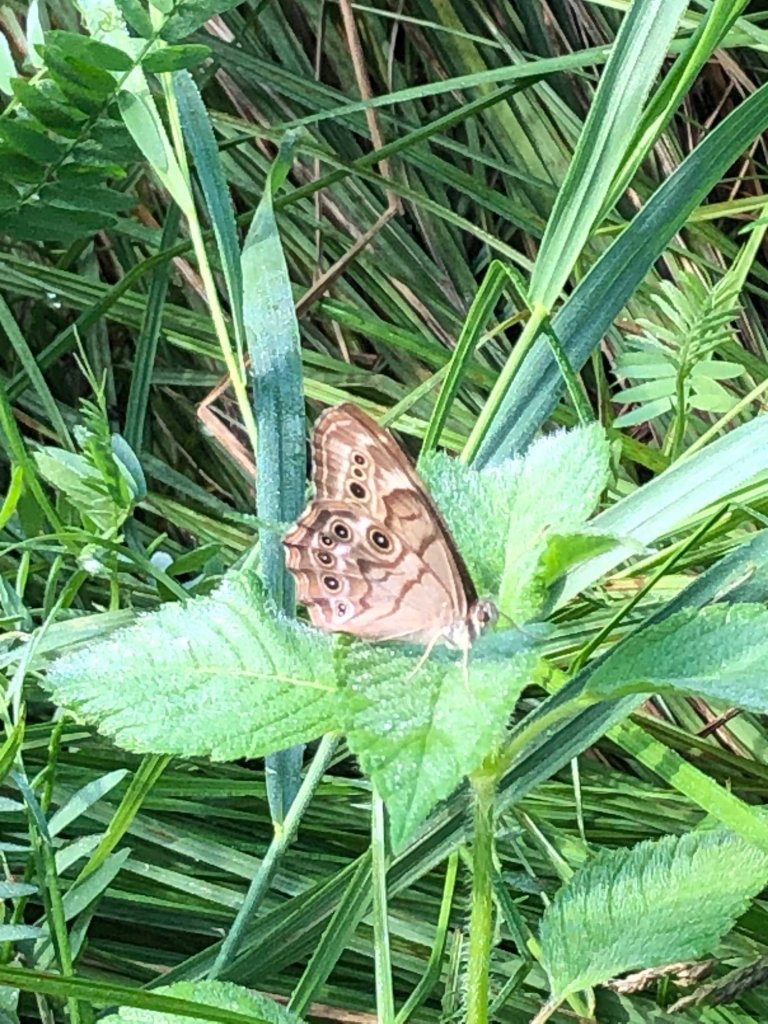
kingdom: Animalia
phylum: Arthropoda
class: Insecta
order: Lepidoptera
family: Nymphalidae
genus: Lethe
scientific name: Lethe anthedon
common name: Northern Pearly-Eye
